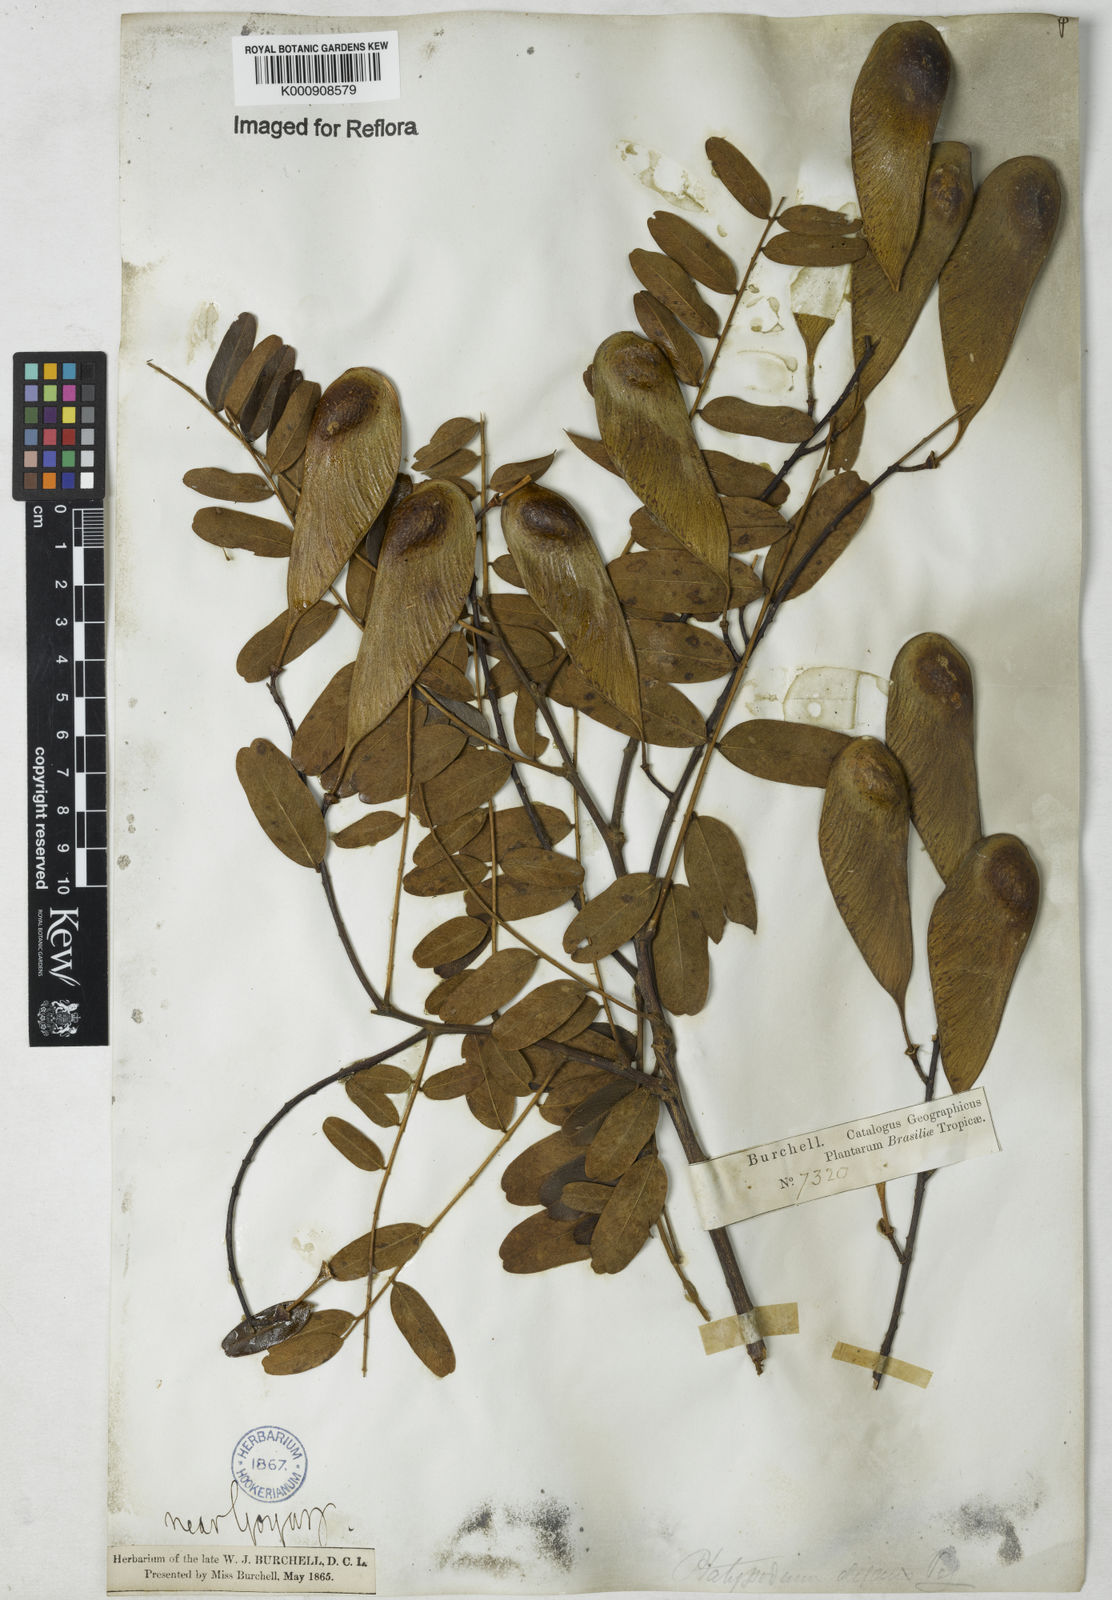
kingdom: Plantae
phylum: Tracheophyta
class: Magnoliopsida
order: Fabales
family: Fabaceae
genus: Platypodium
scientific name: Platypodium
